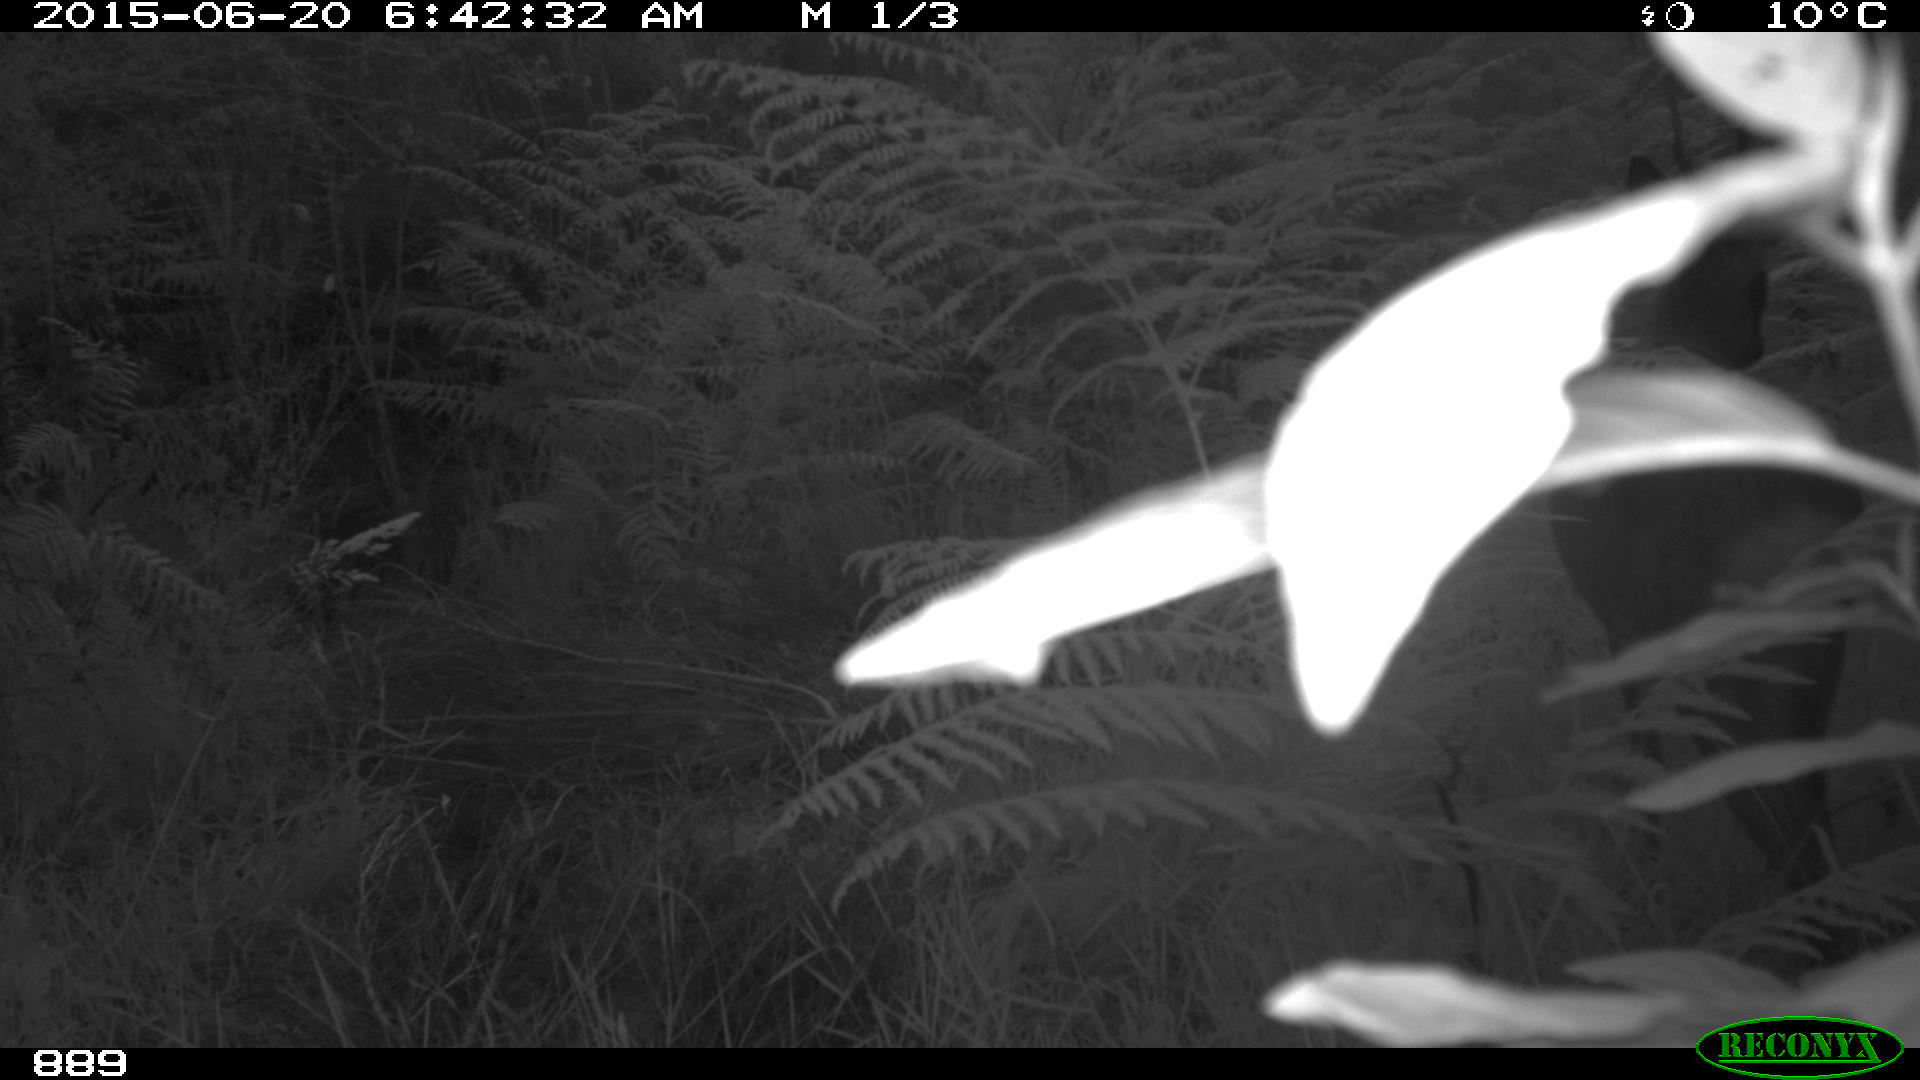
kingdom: Animalia
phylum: Chordata
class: Mammalia
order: Artiodactyla
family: Cervidae
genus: Capreolus
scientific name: Capreolus capreolus
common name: Western roe deer
